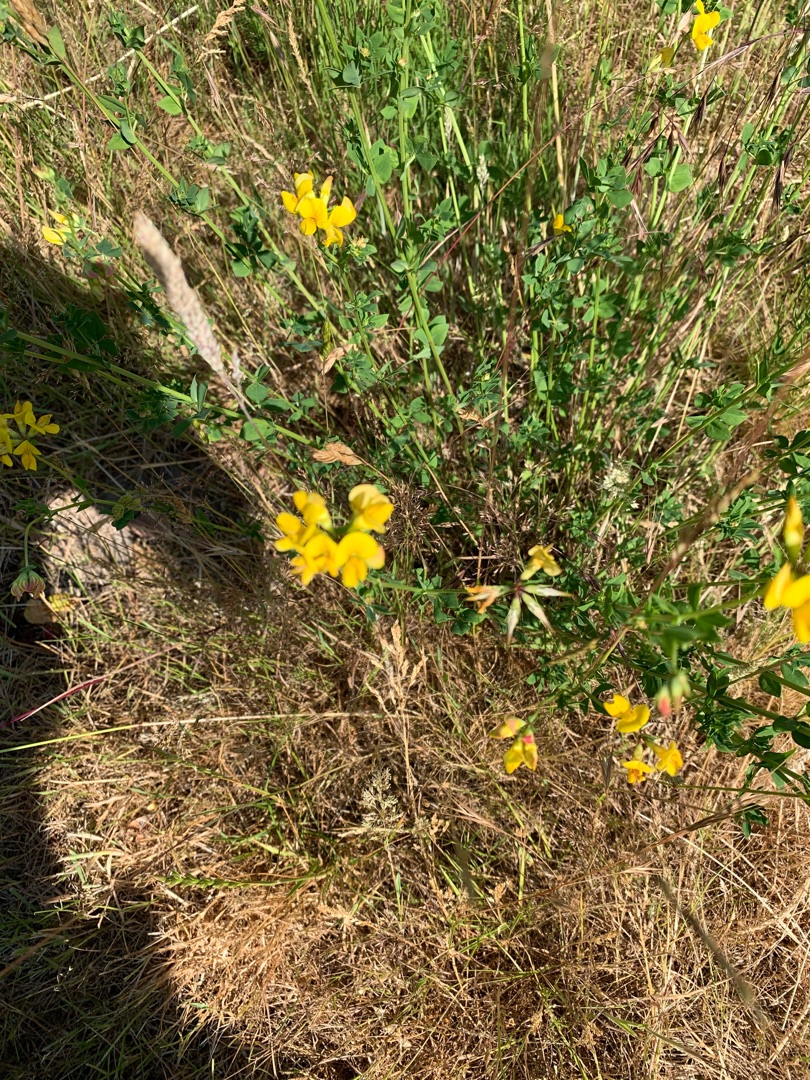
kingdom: Plantae
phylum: Tracheophyta
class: Magnoliopsida
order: Fabales
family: Fabaceae
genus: Lotus
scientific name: Lotus corniculatus
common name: Almindelig kællingetand
